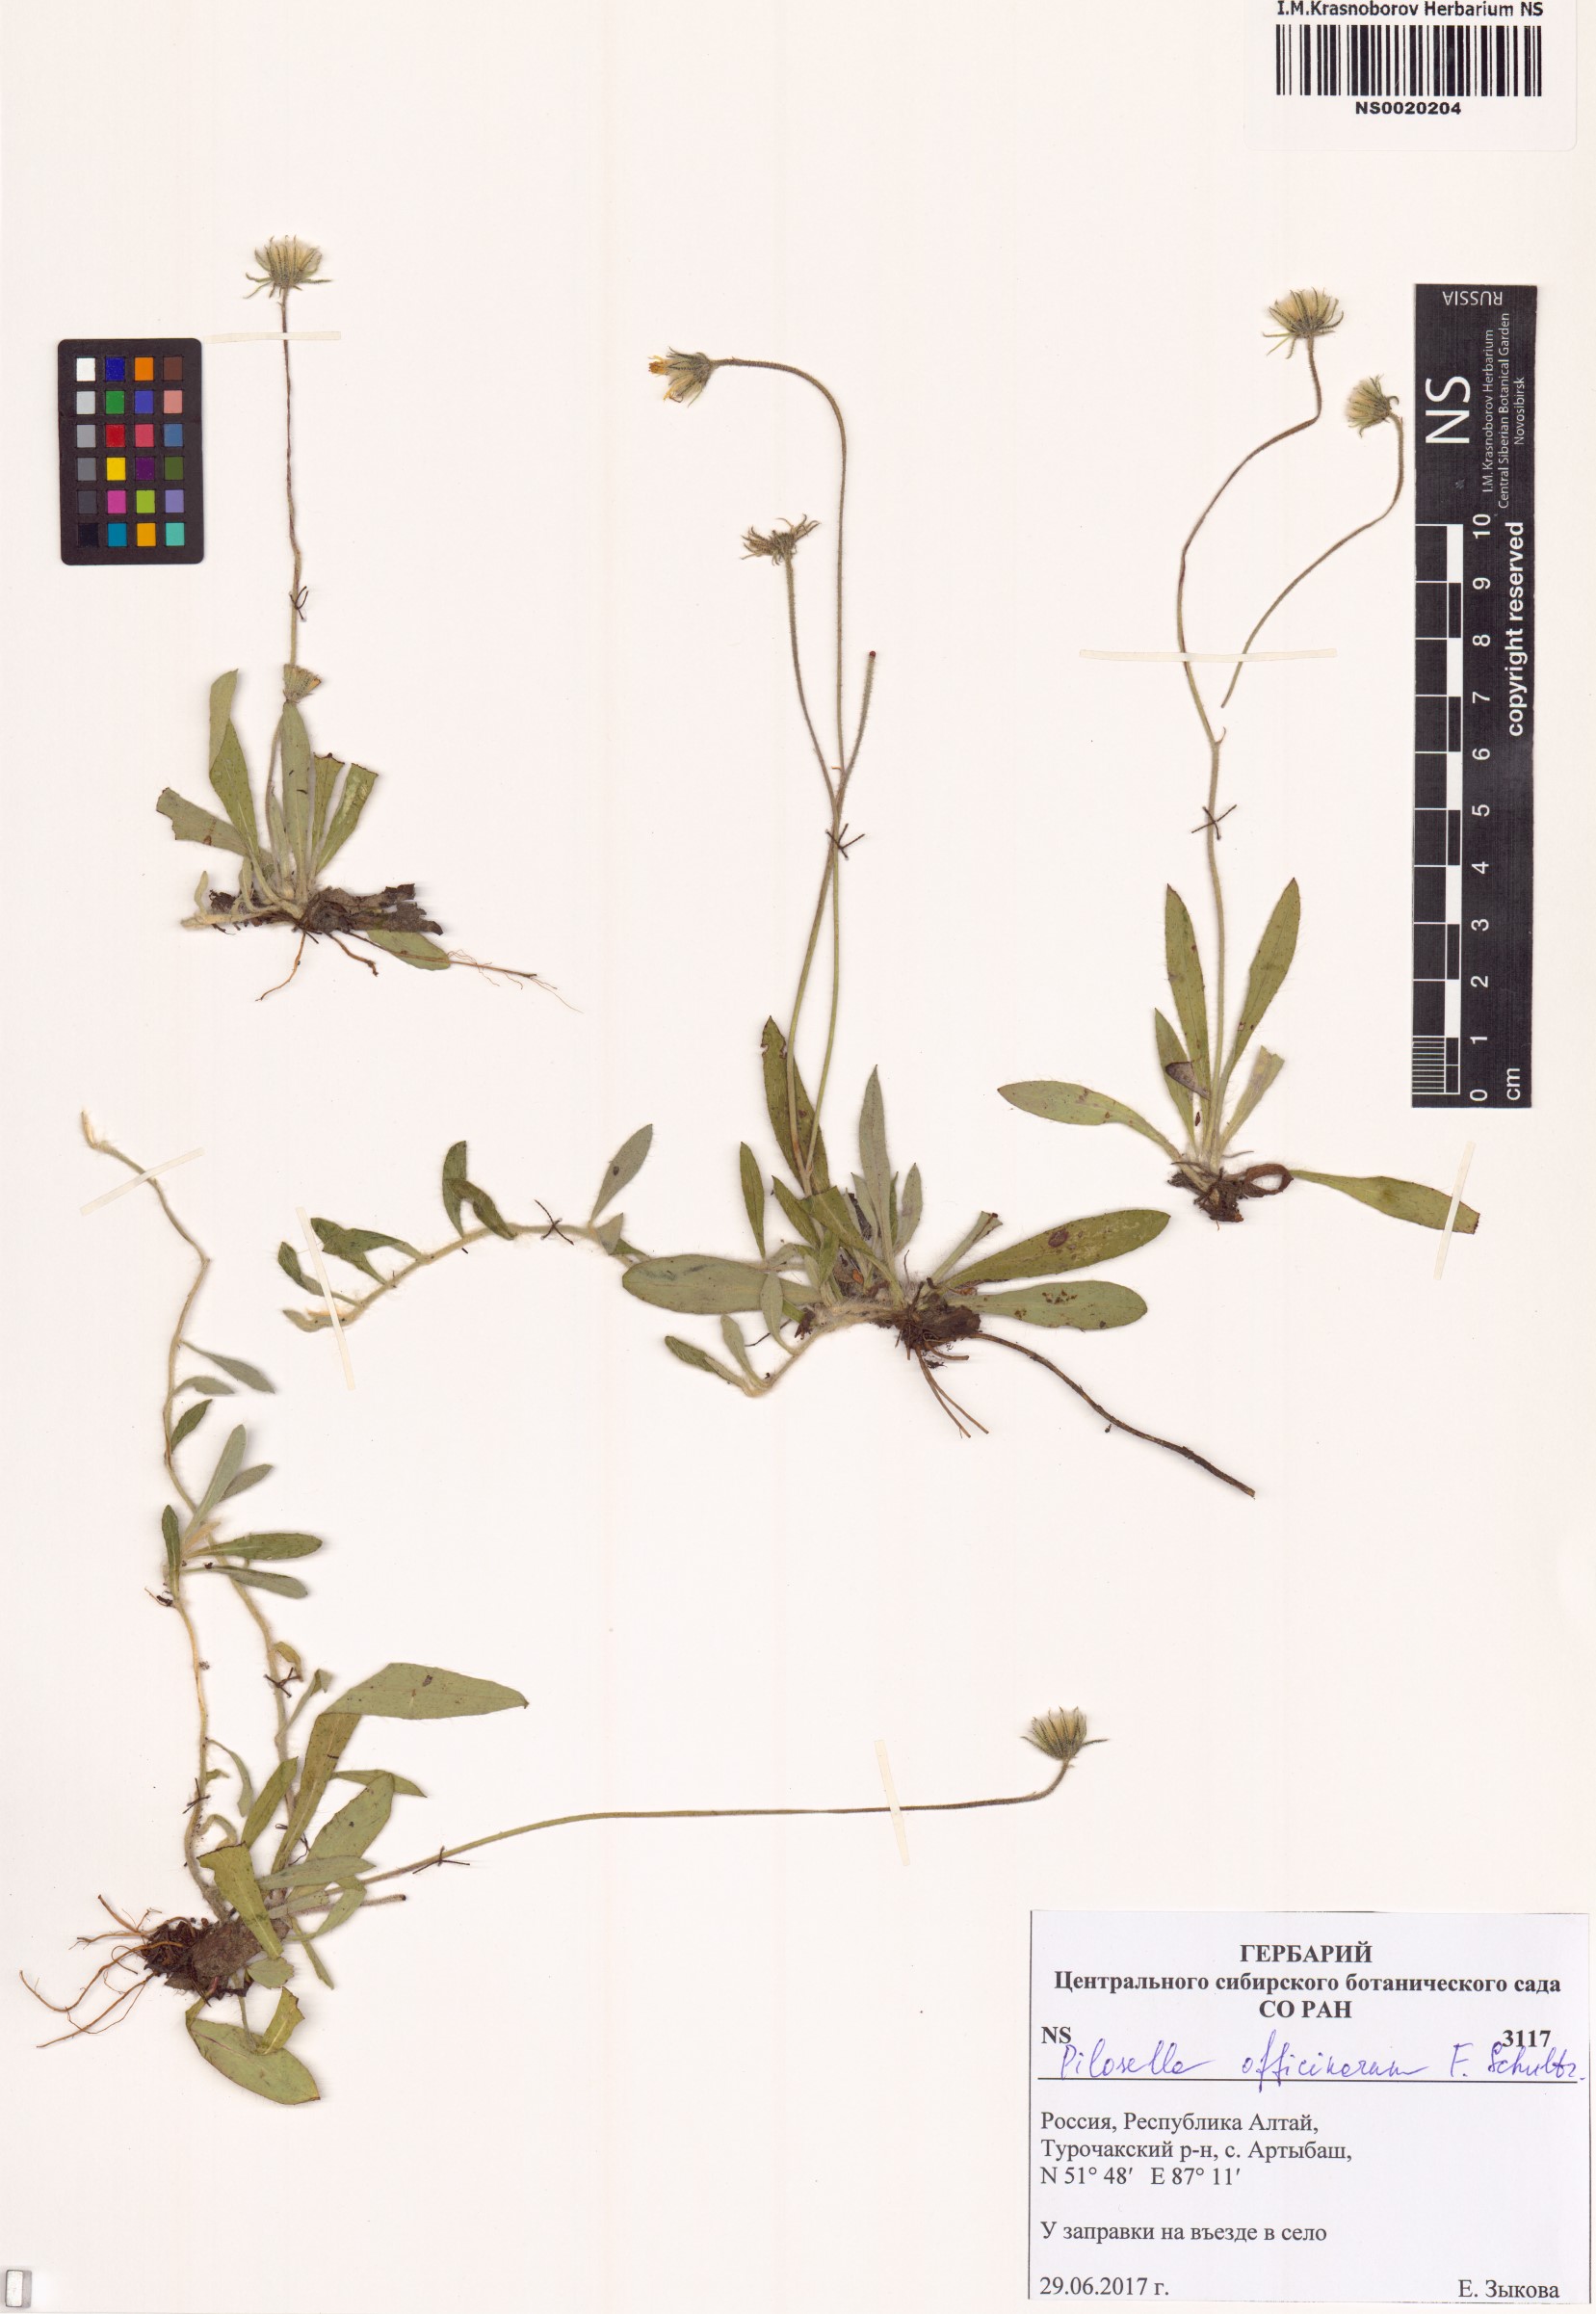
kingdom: Plantae
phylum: Tracheophyta
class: Magnoliopsida
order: Asterales
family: Asteraceae
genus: Pilosella
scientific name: Pilosella officinarum
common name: Mouse-ear hawkweed
